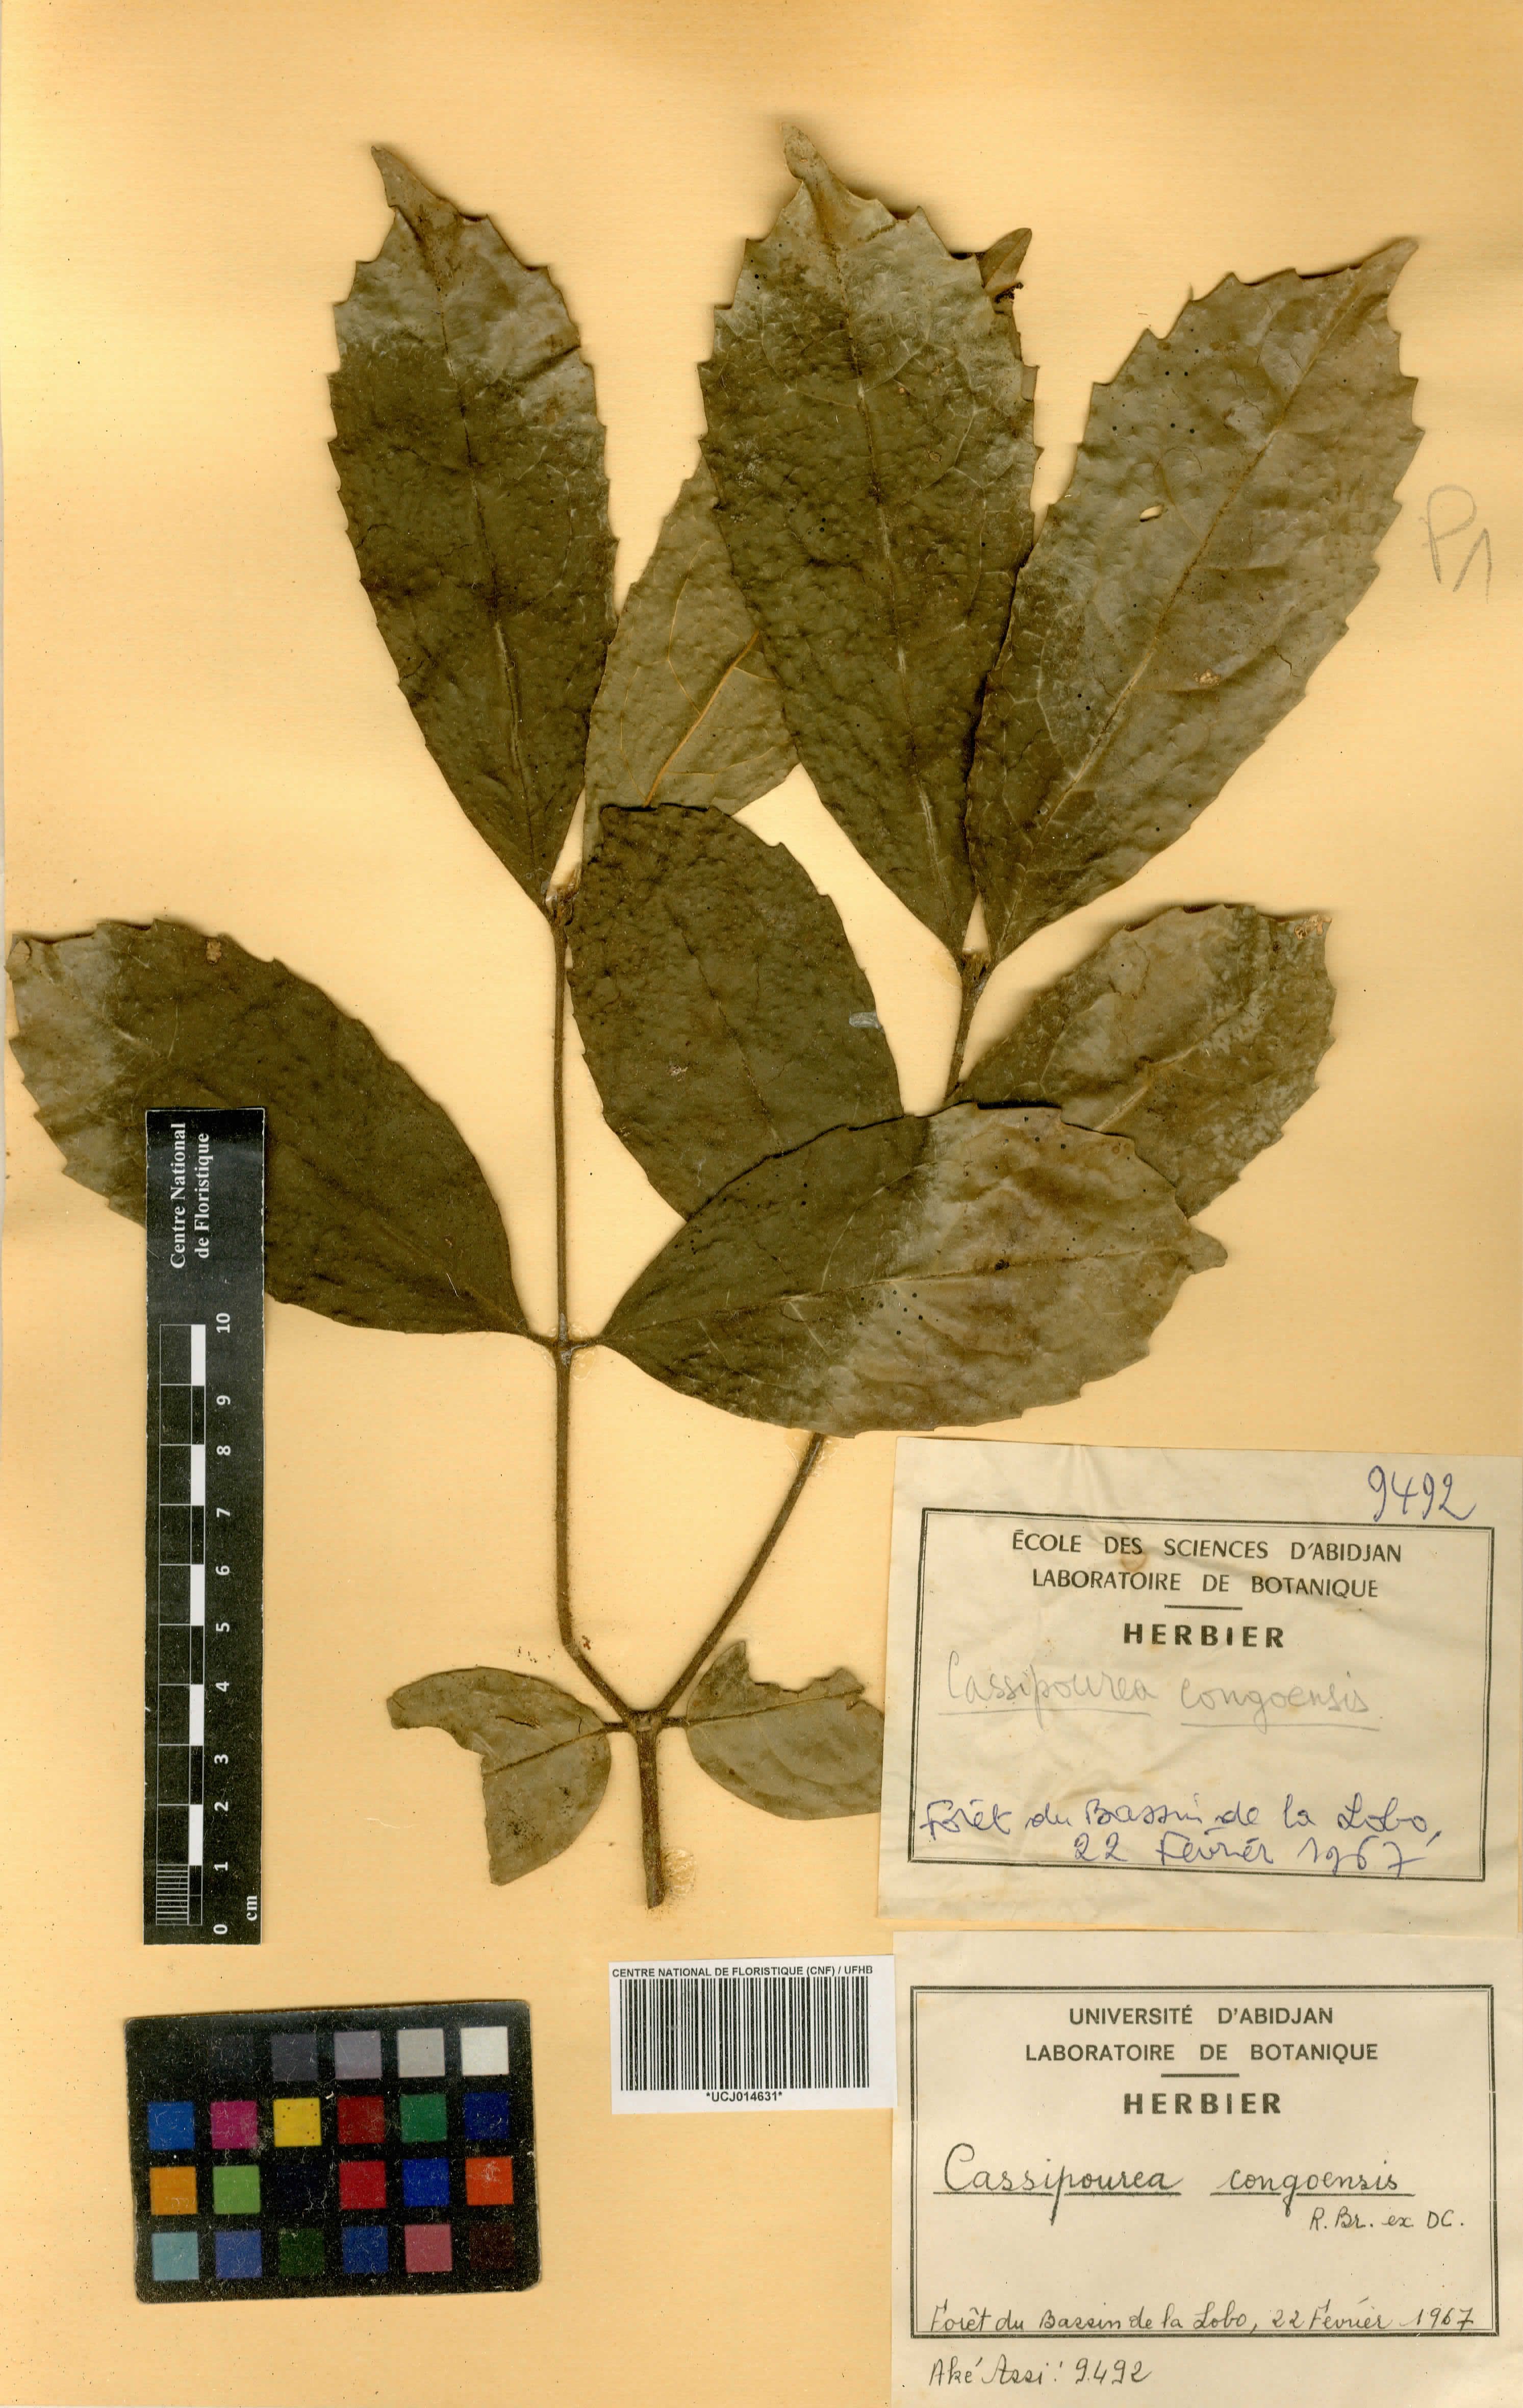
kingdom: Plantae
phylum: Tracheophyta
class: Magnoliopsida
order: Malpighiales
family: Rhizophoraceae
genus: Cassipourea
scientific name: Cassipourea congoensis
